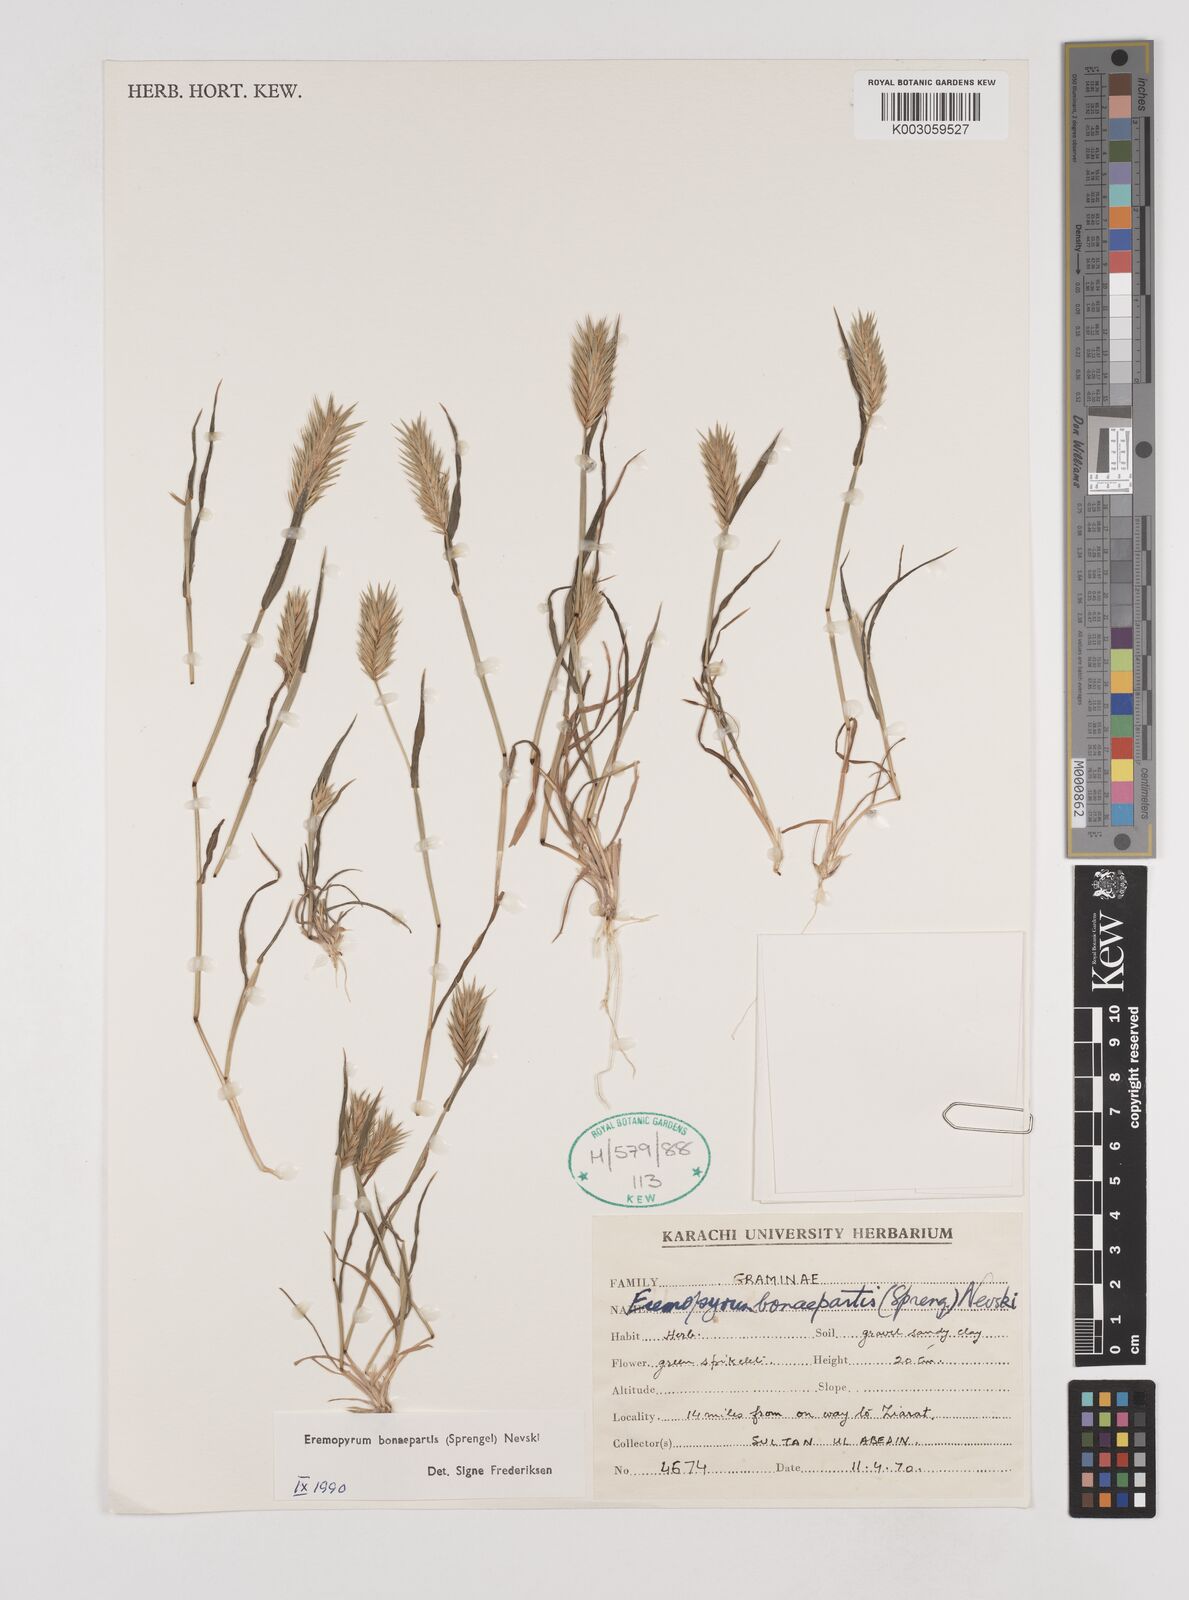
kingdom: Plantae
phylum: Tracheophyta
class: Liliopsida
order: Poales
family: Poaceae
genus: Eremopyrum
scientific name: Eremopyrum bonaepartis
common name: Tapertip false wheatgrass
